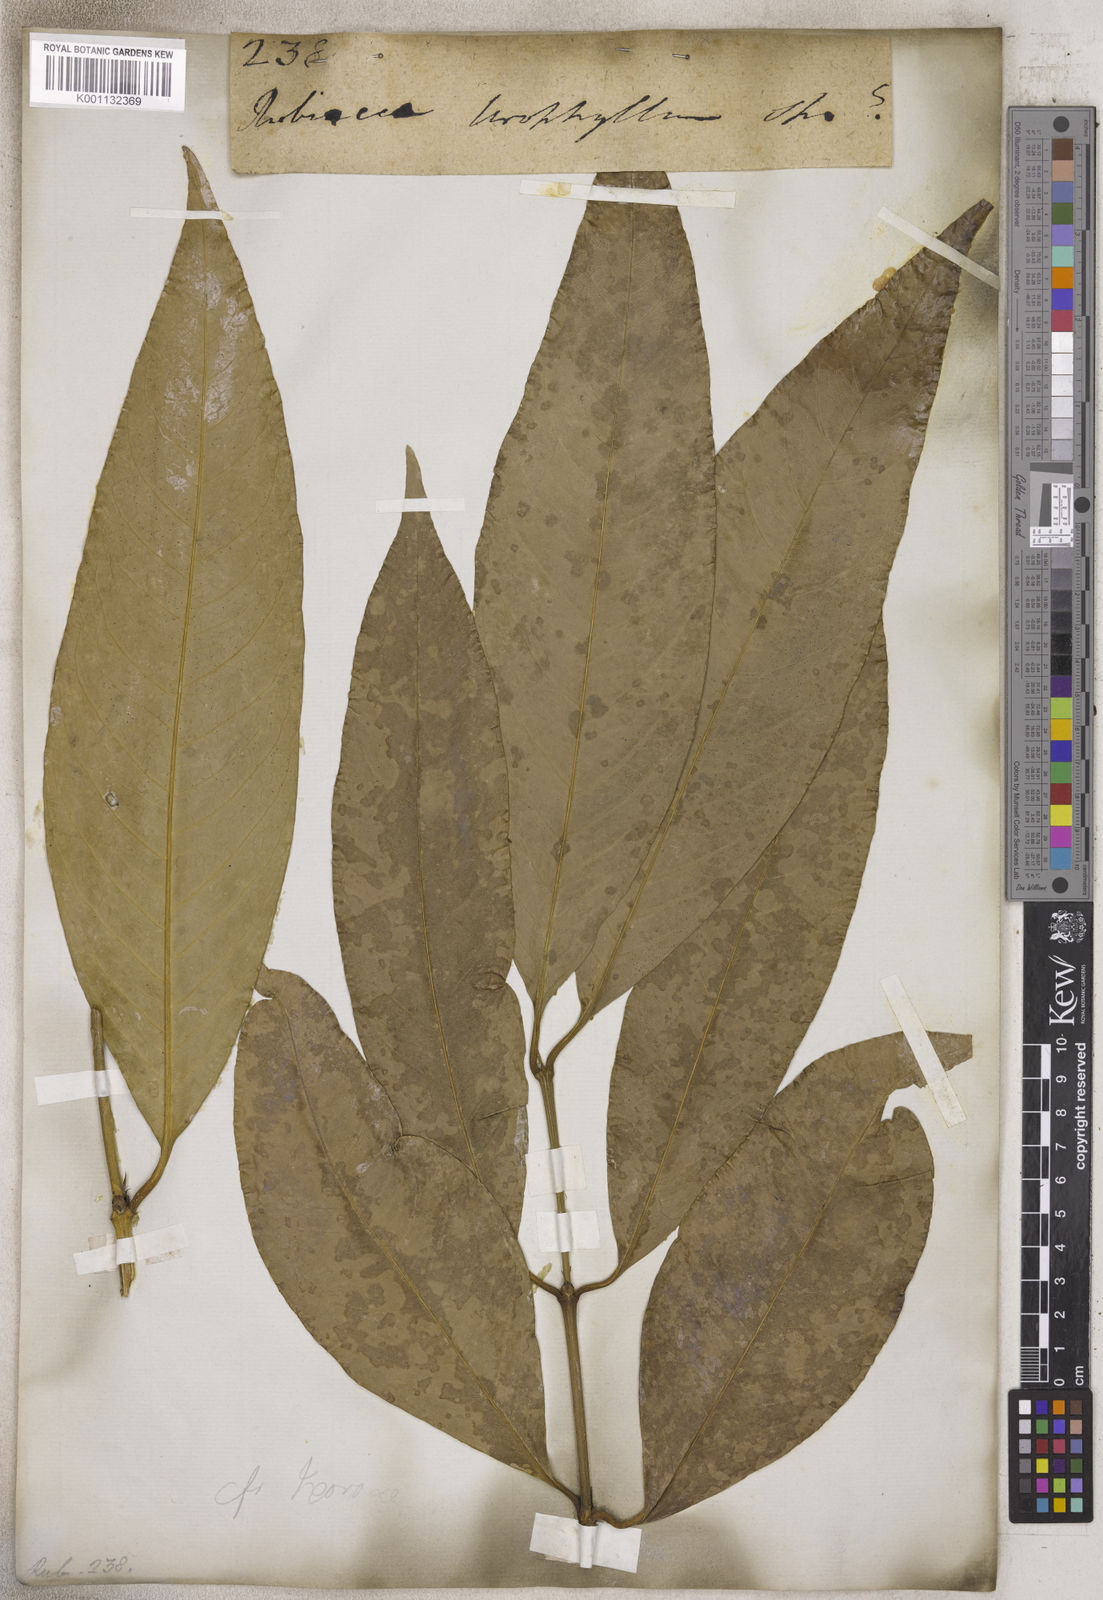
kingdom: Plantae
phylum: Tracheophyta
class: Magnoliopsida
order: Gentianales
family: Rubiaceae
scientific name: Rubiaceae
